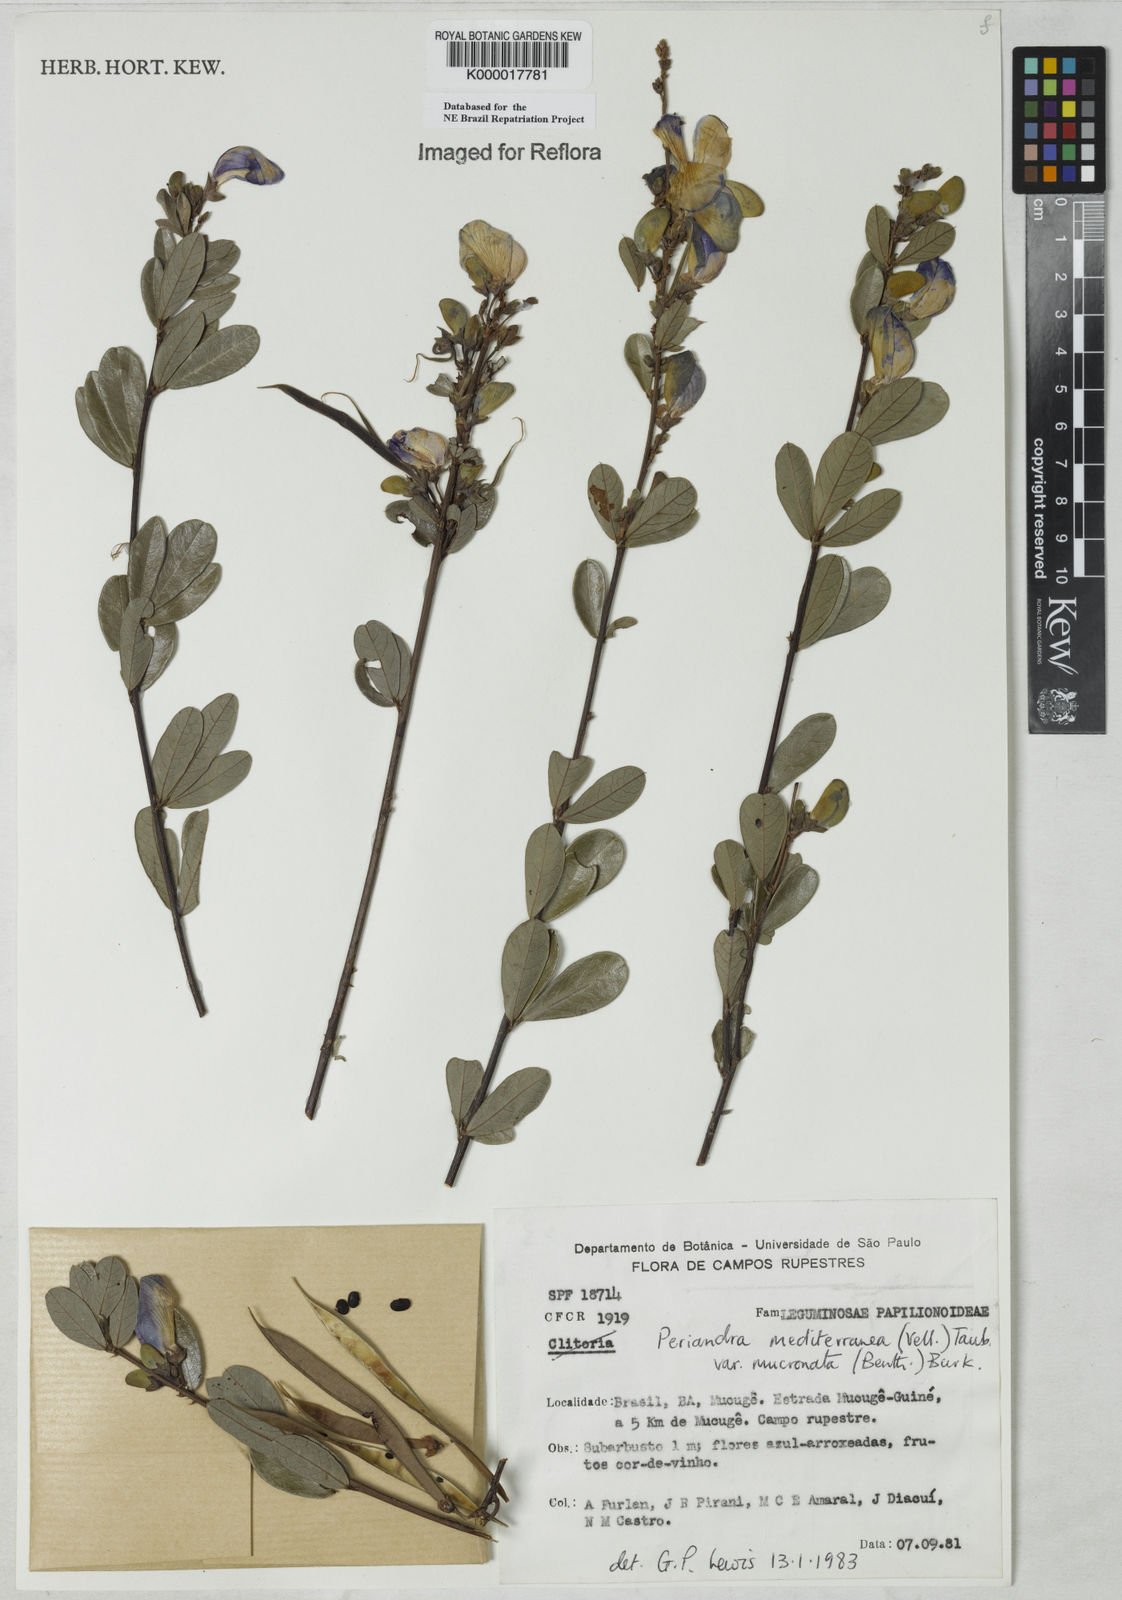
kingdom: Plantae
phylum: Tracheophyta
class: Magnoliopsida
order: Fabales
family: Fabaceae
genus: Periandra
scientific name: Periandra mediterranea
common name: Brazilian licorice
